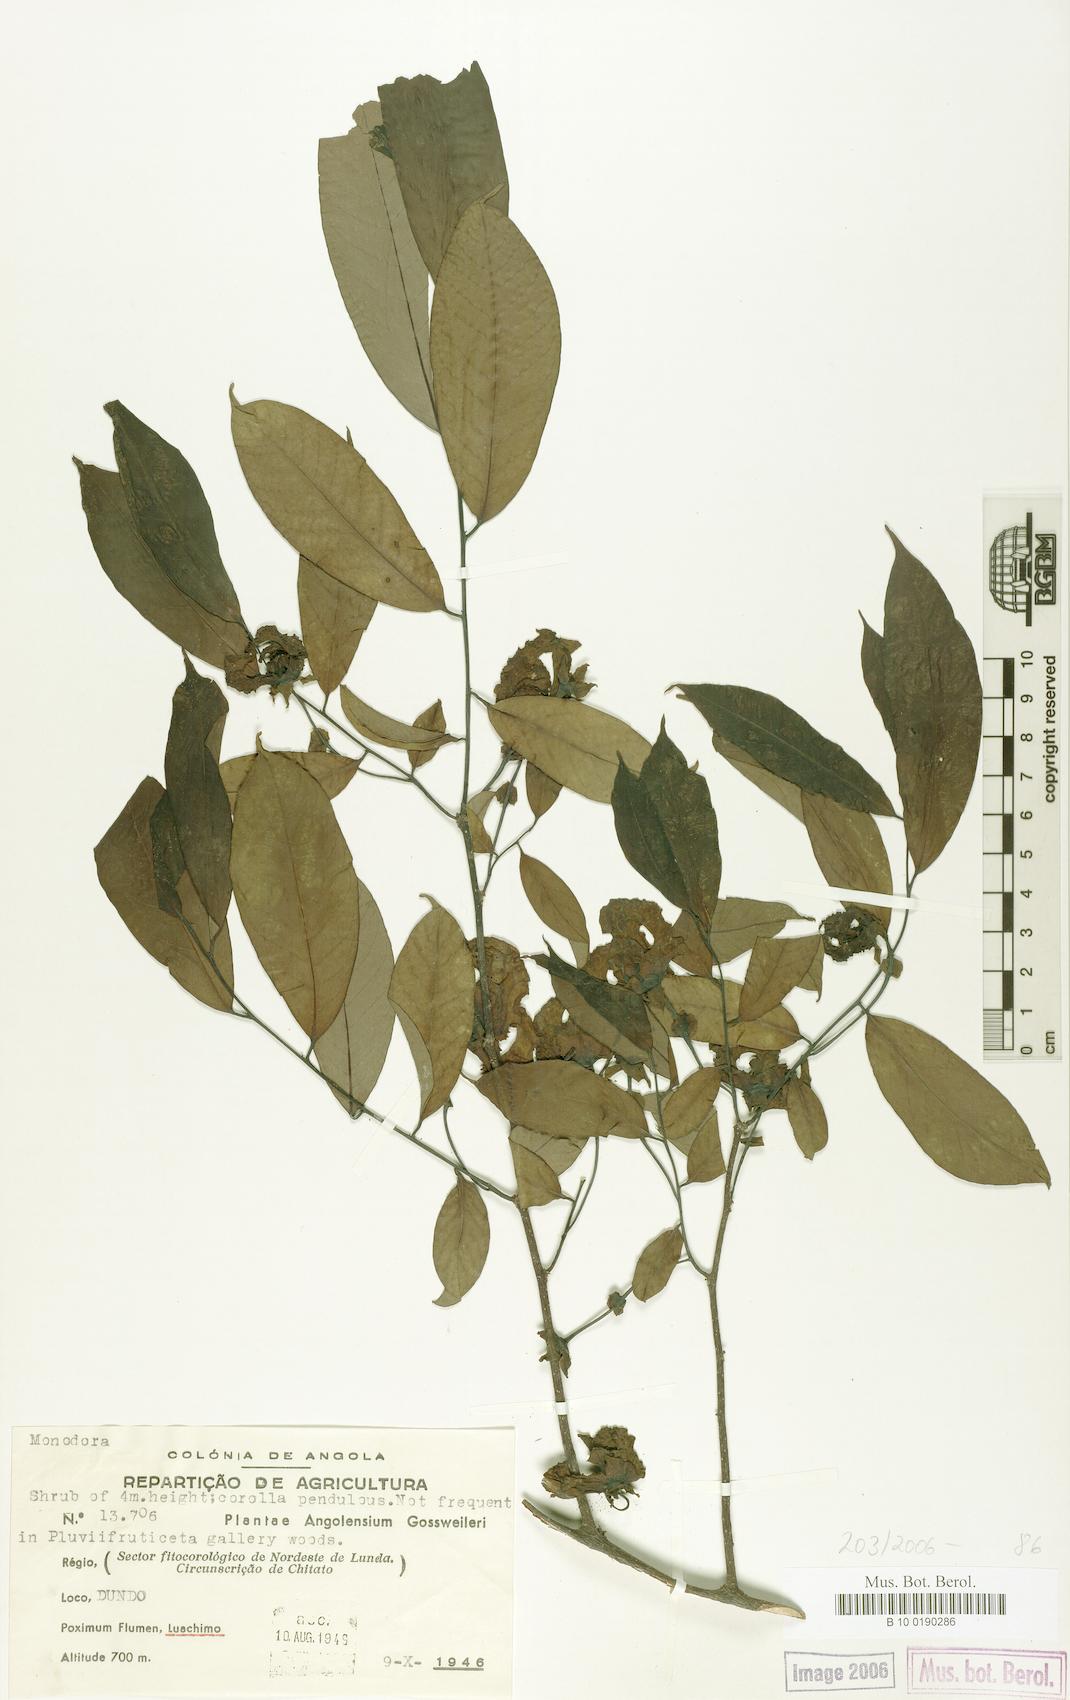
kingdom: Plantae
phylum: Tracheophyta
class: Magnoliopsida
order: Magnoliales
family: Annonaceae
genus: Monodora
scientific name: Monodora
